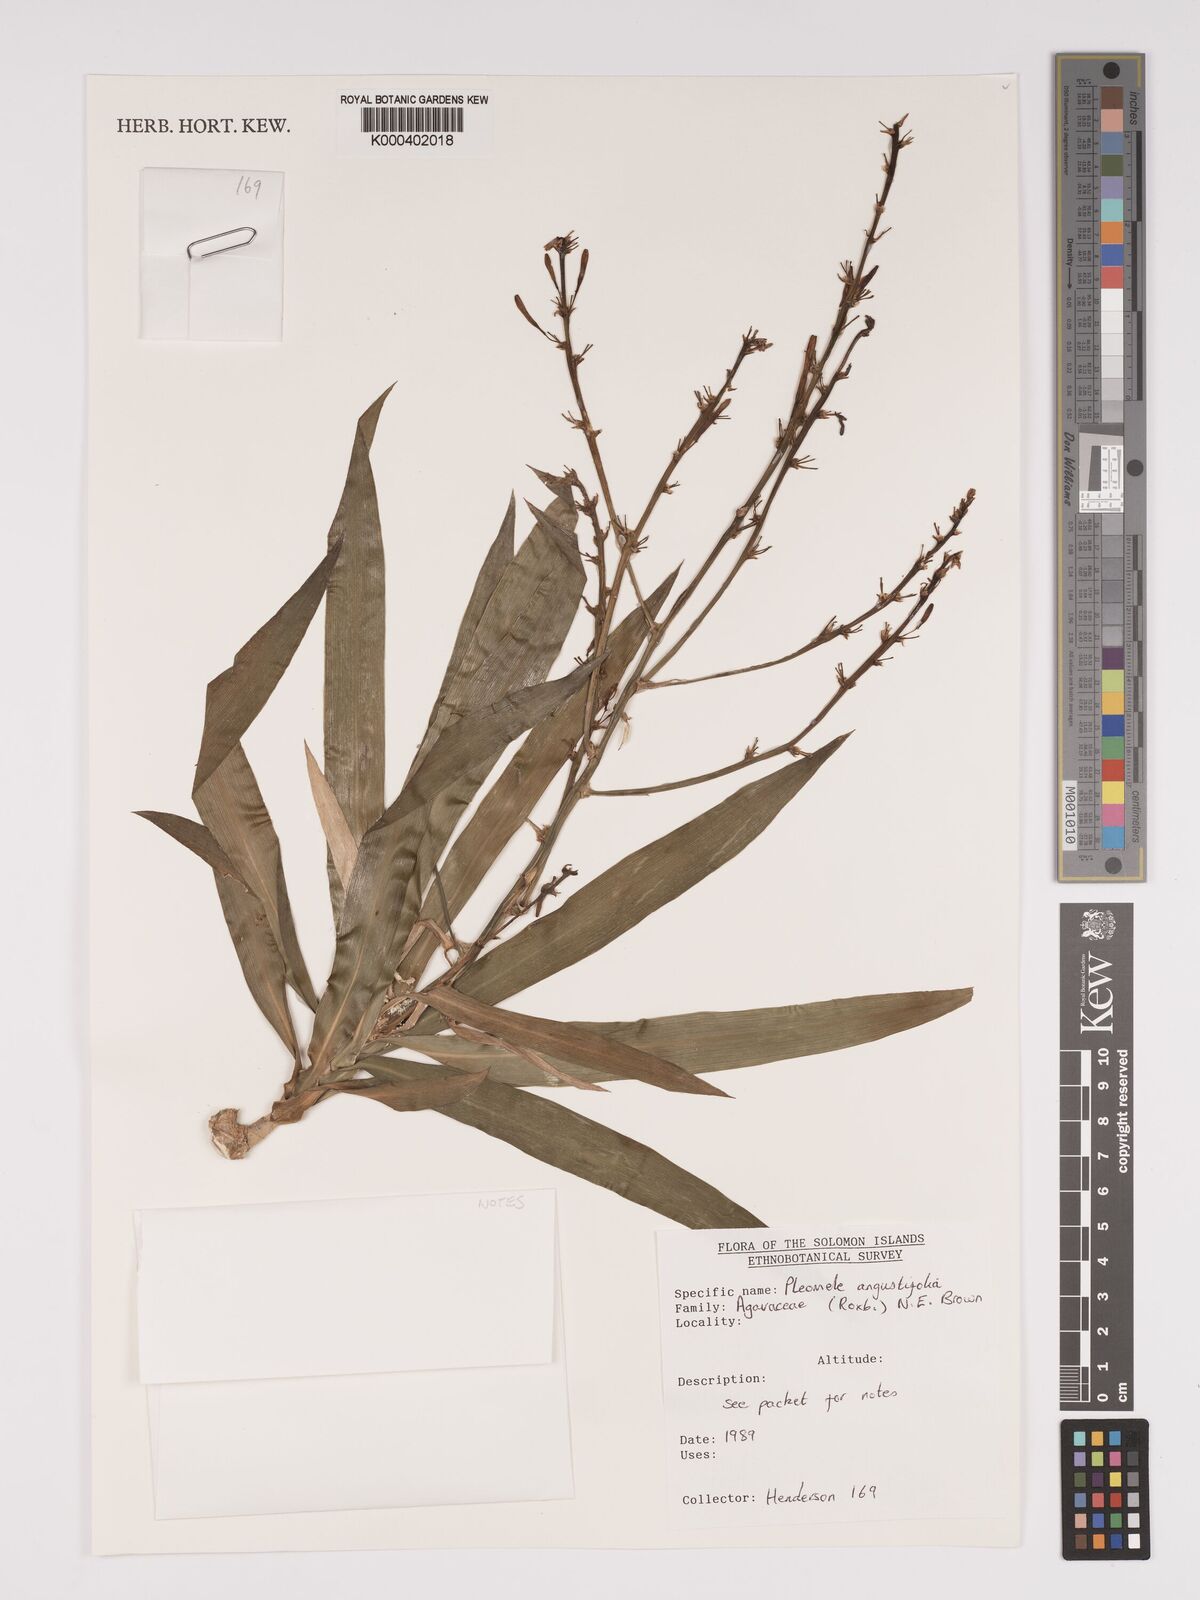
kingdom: Plantae
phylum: Tracheophyta
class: Liliopsida
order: Asparagales
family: Asparagaceae
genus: Dracaena
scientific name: Dracaena angustifolia
